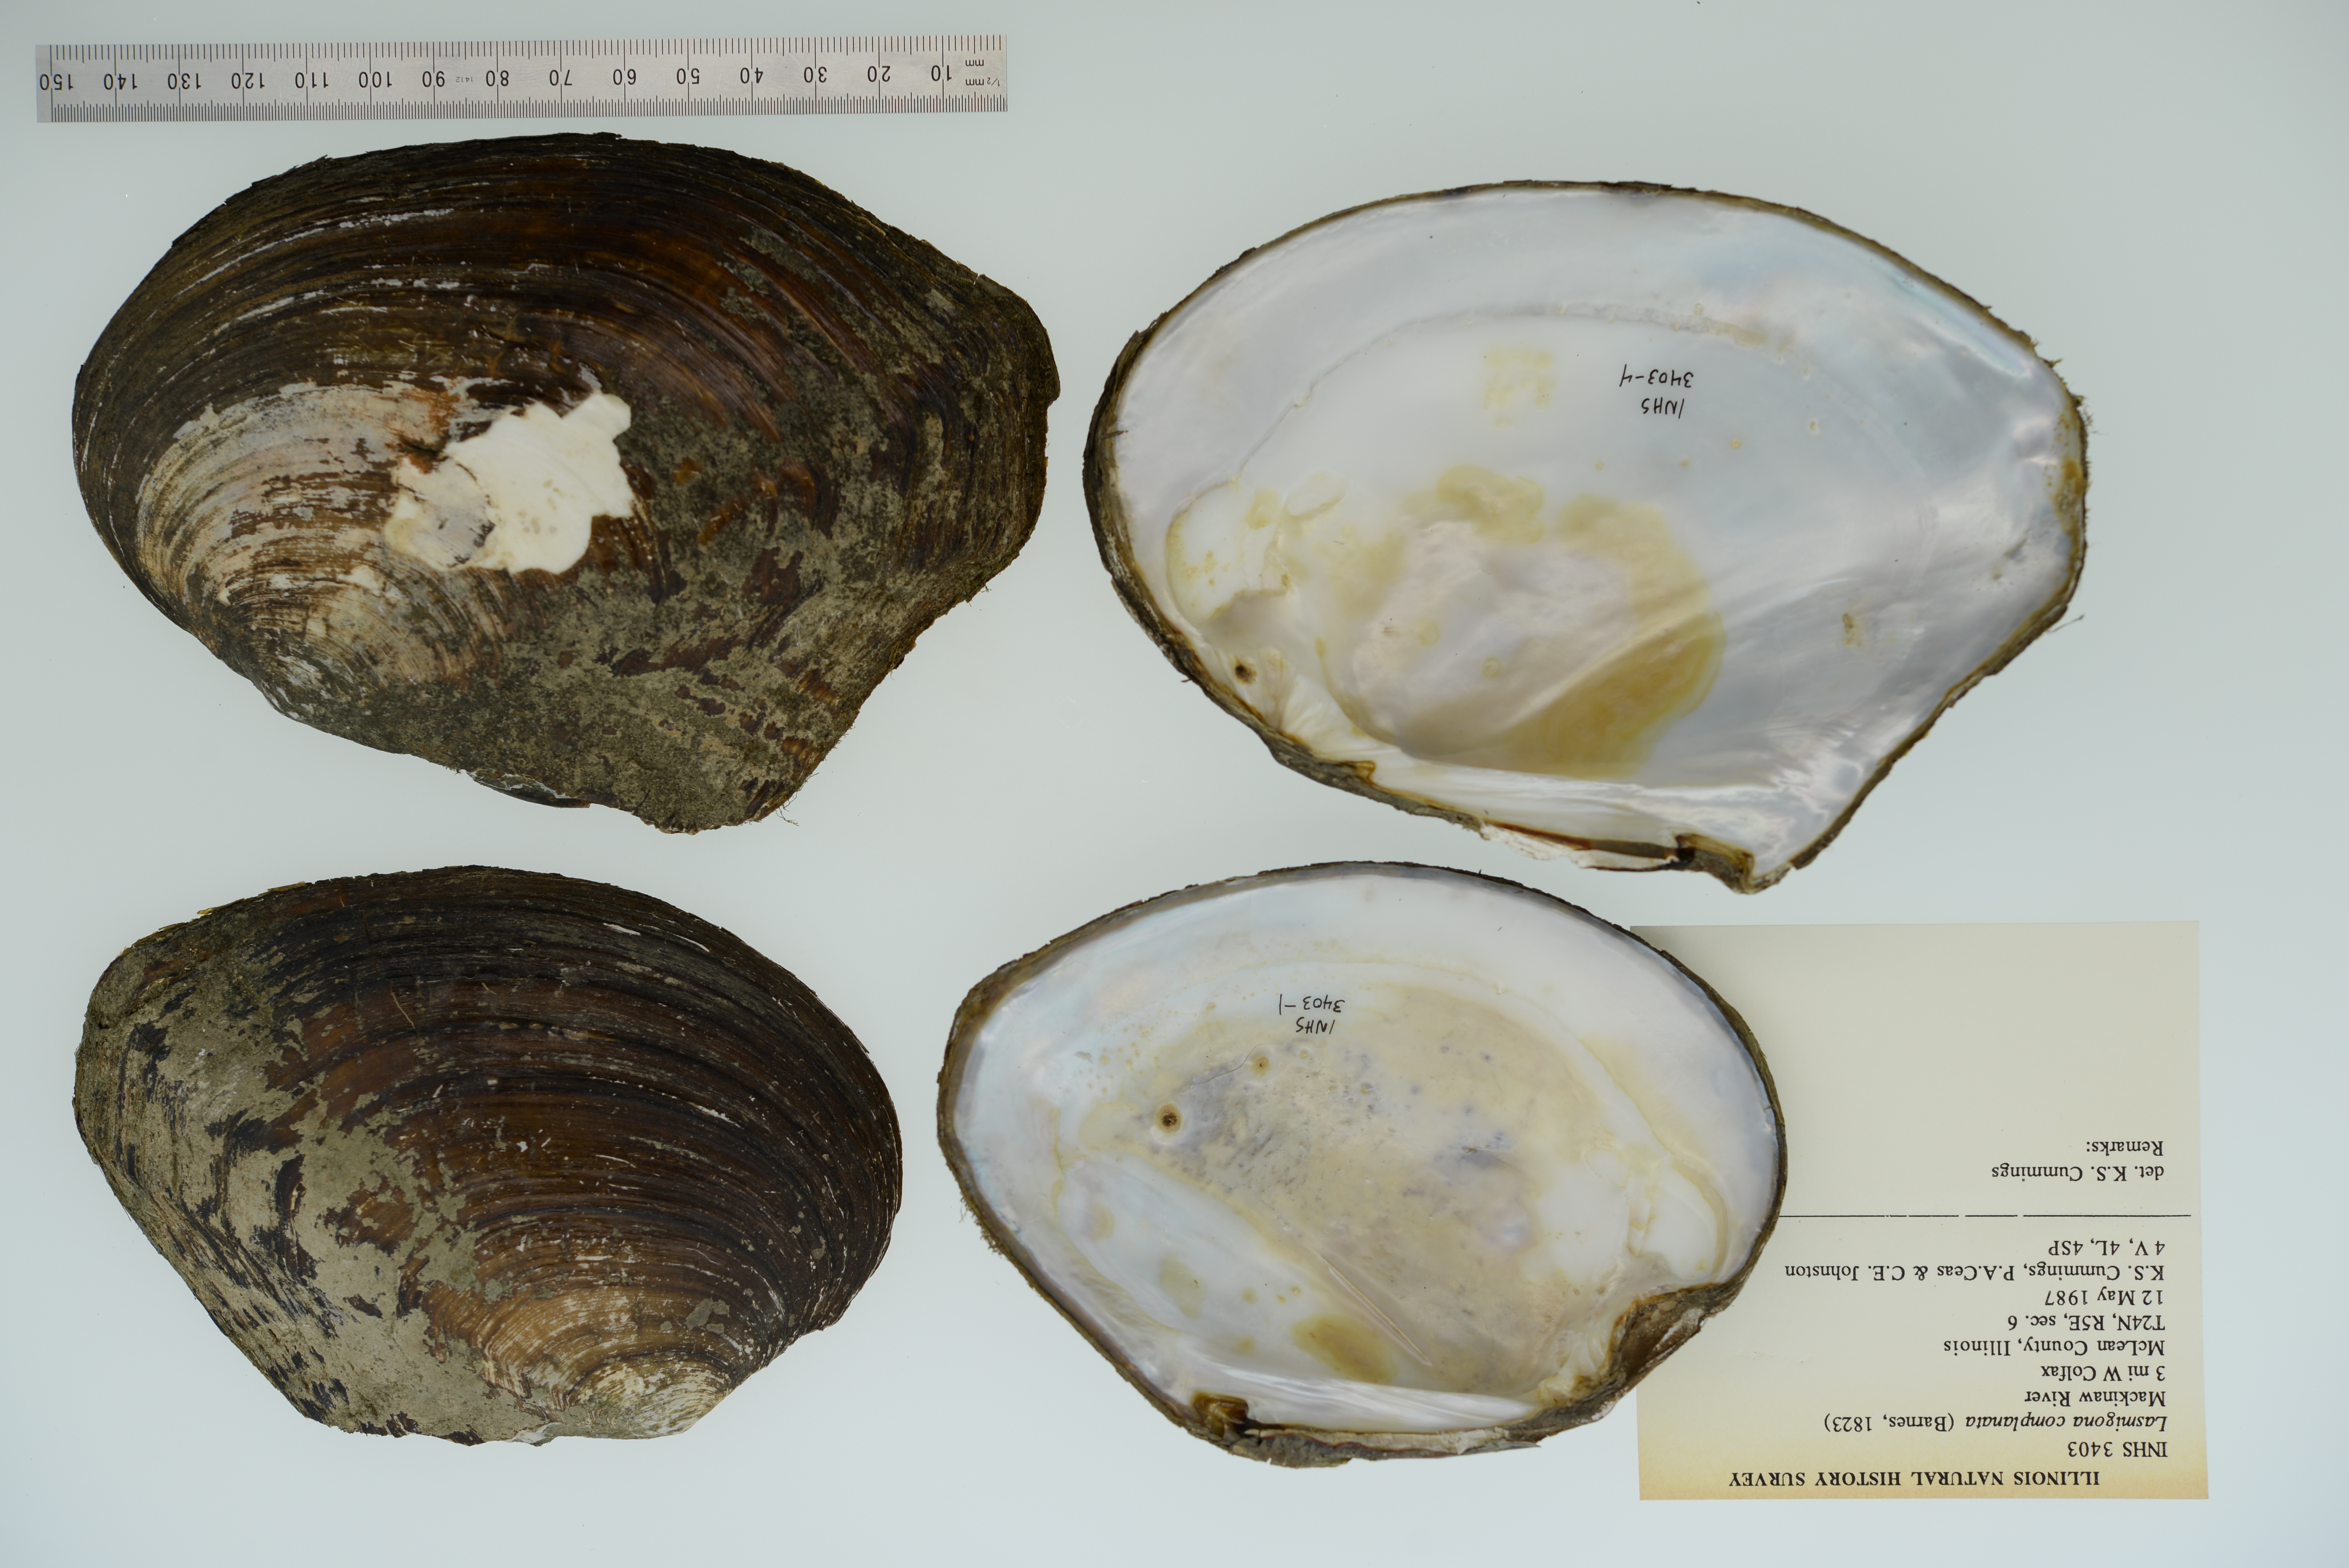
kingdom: Animalia
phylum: Mollusca
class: Bivalvia
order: Unionida
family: Unionidae
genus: Lasmigona
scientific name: Lasmigona complanata
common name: White heelsplitter
